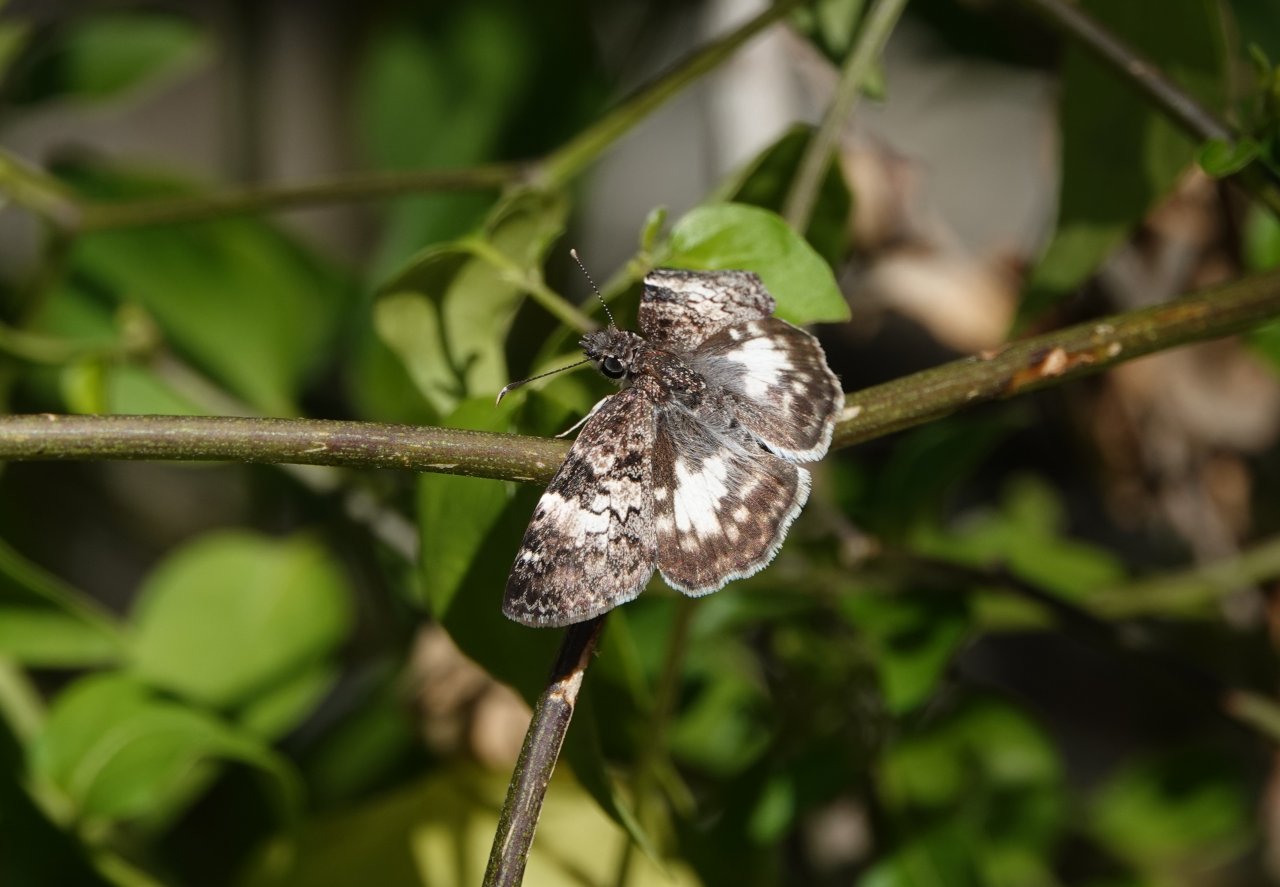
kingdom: Animalia
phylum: Arthropoda
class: Insecta
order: Lepidoptera
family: Hesperiidae
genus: Chiomara
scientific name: Chiomara asychis
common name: White-patched Skipper
